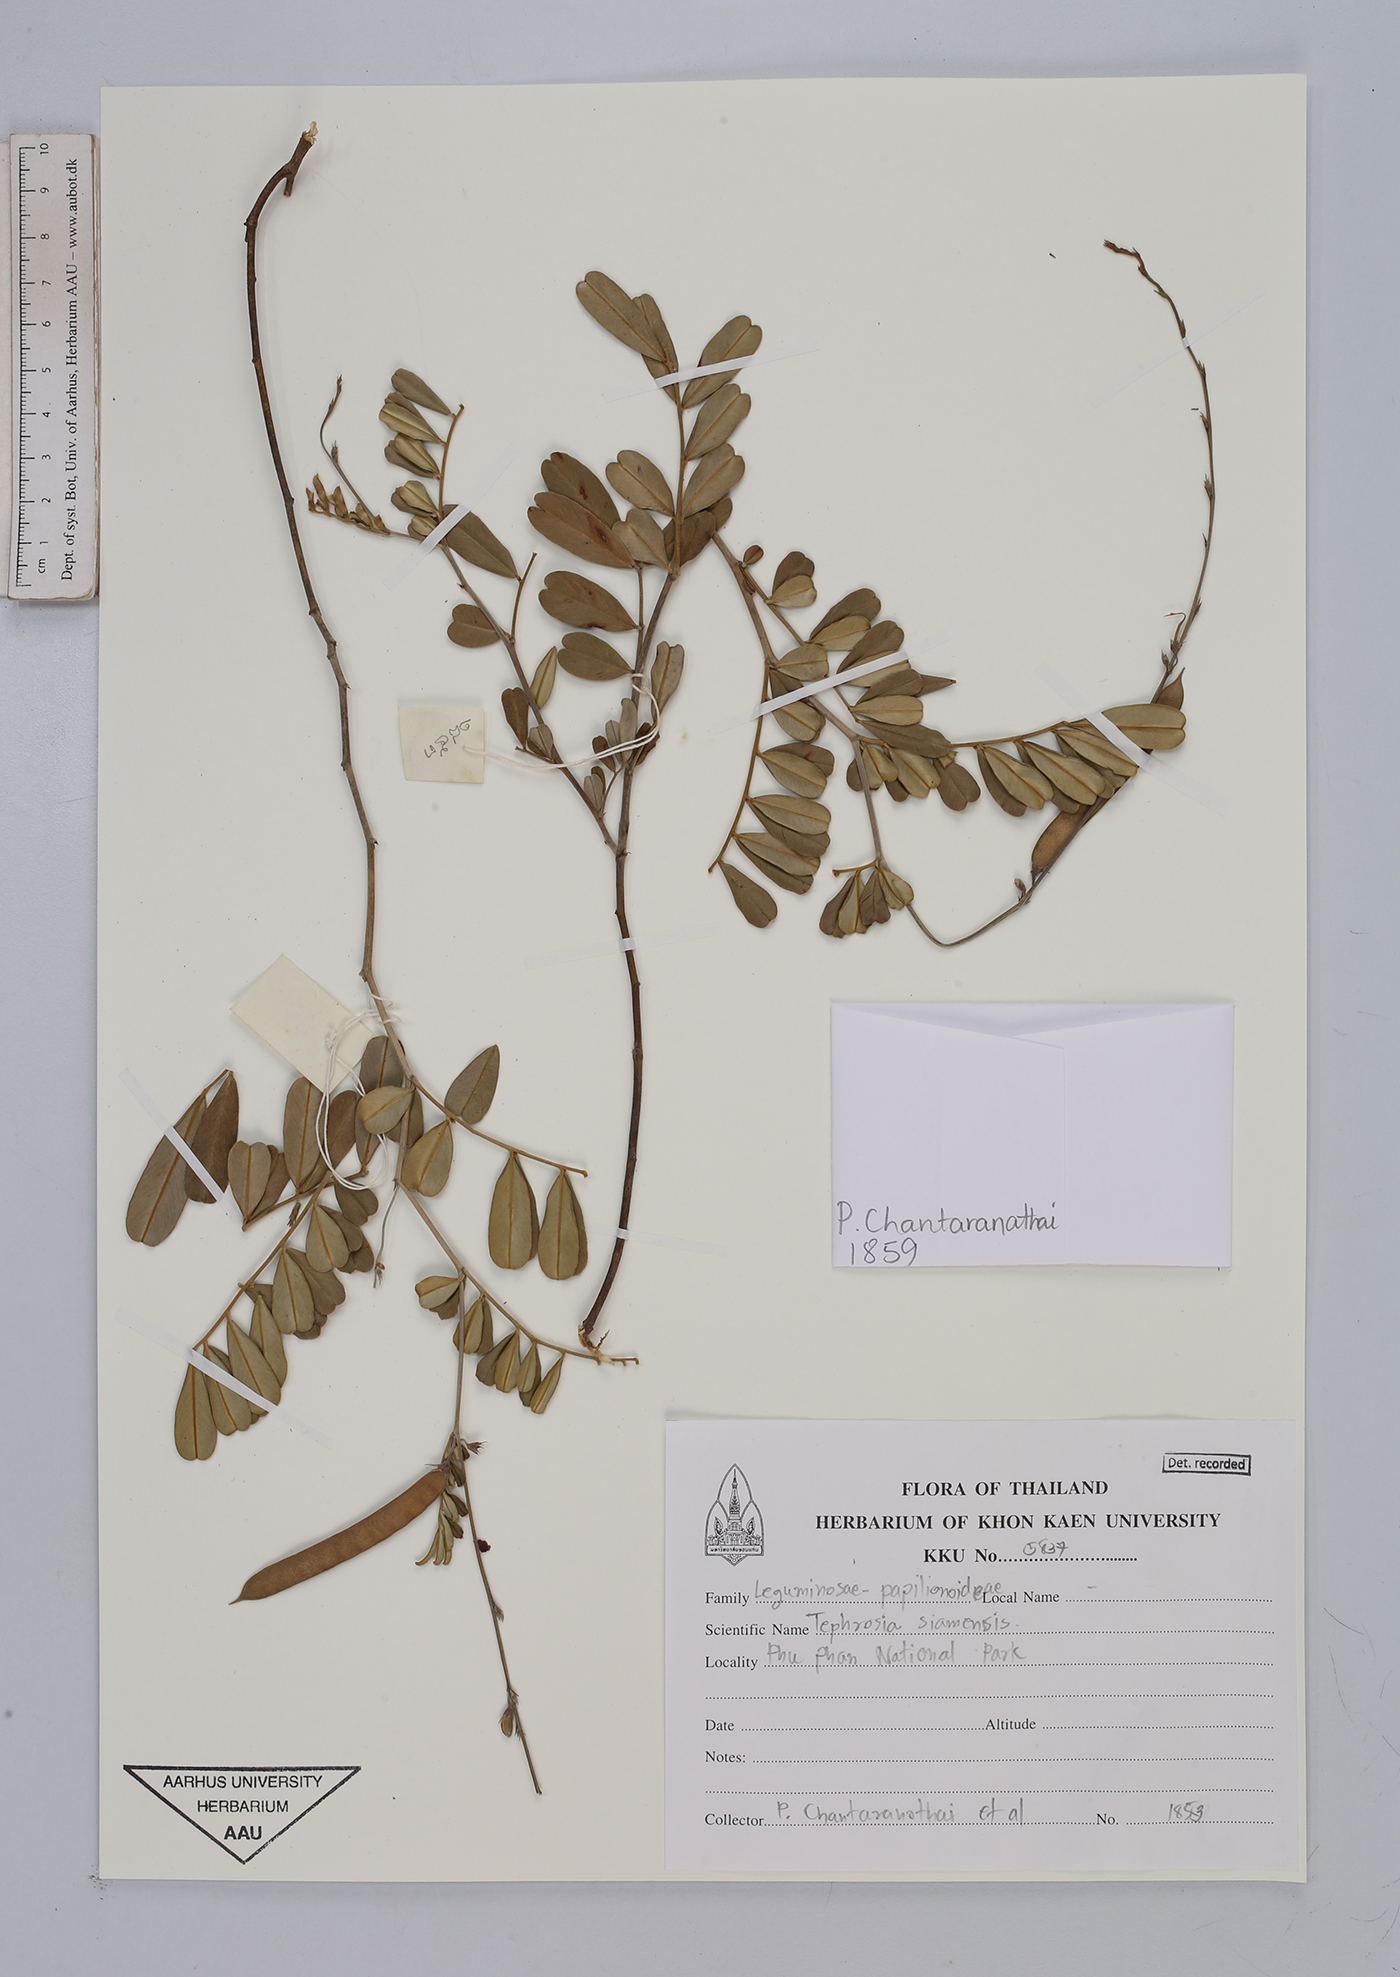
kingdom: Plantae
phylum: Tracheophyta
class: Magnoliopsida
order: Fabales
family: Fabaceae
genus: Tephrosia
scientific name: Tephrosia coccinea
